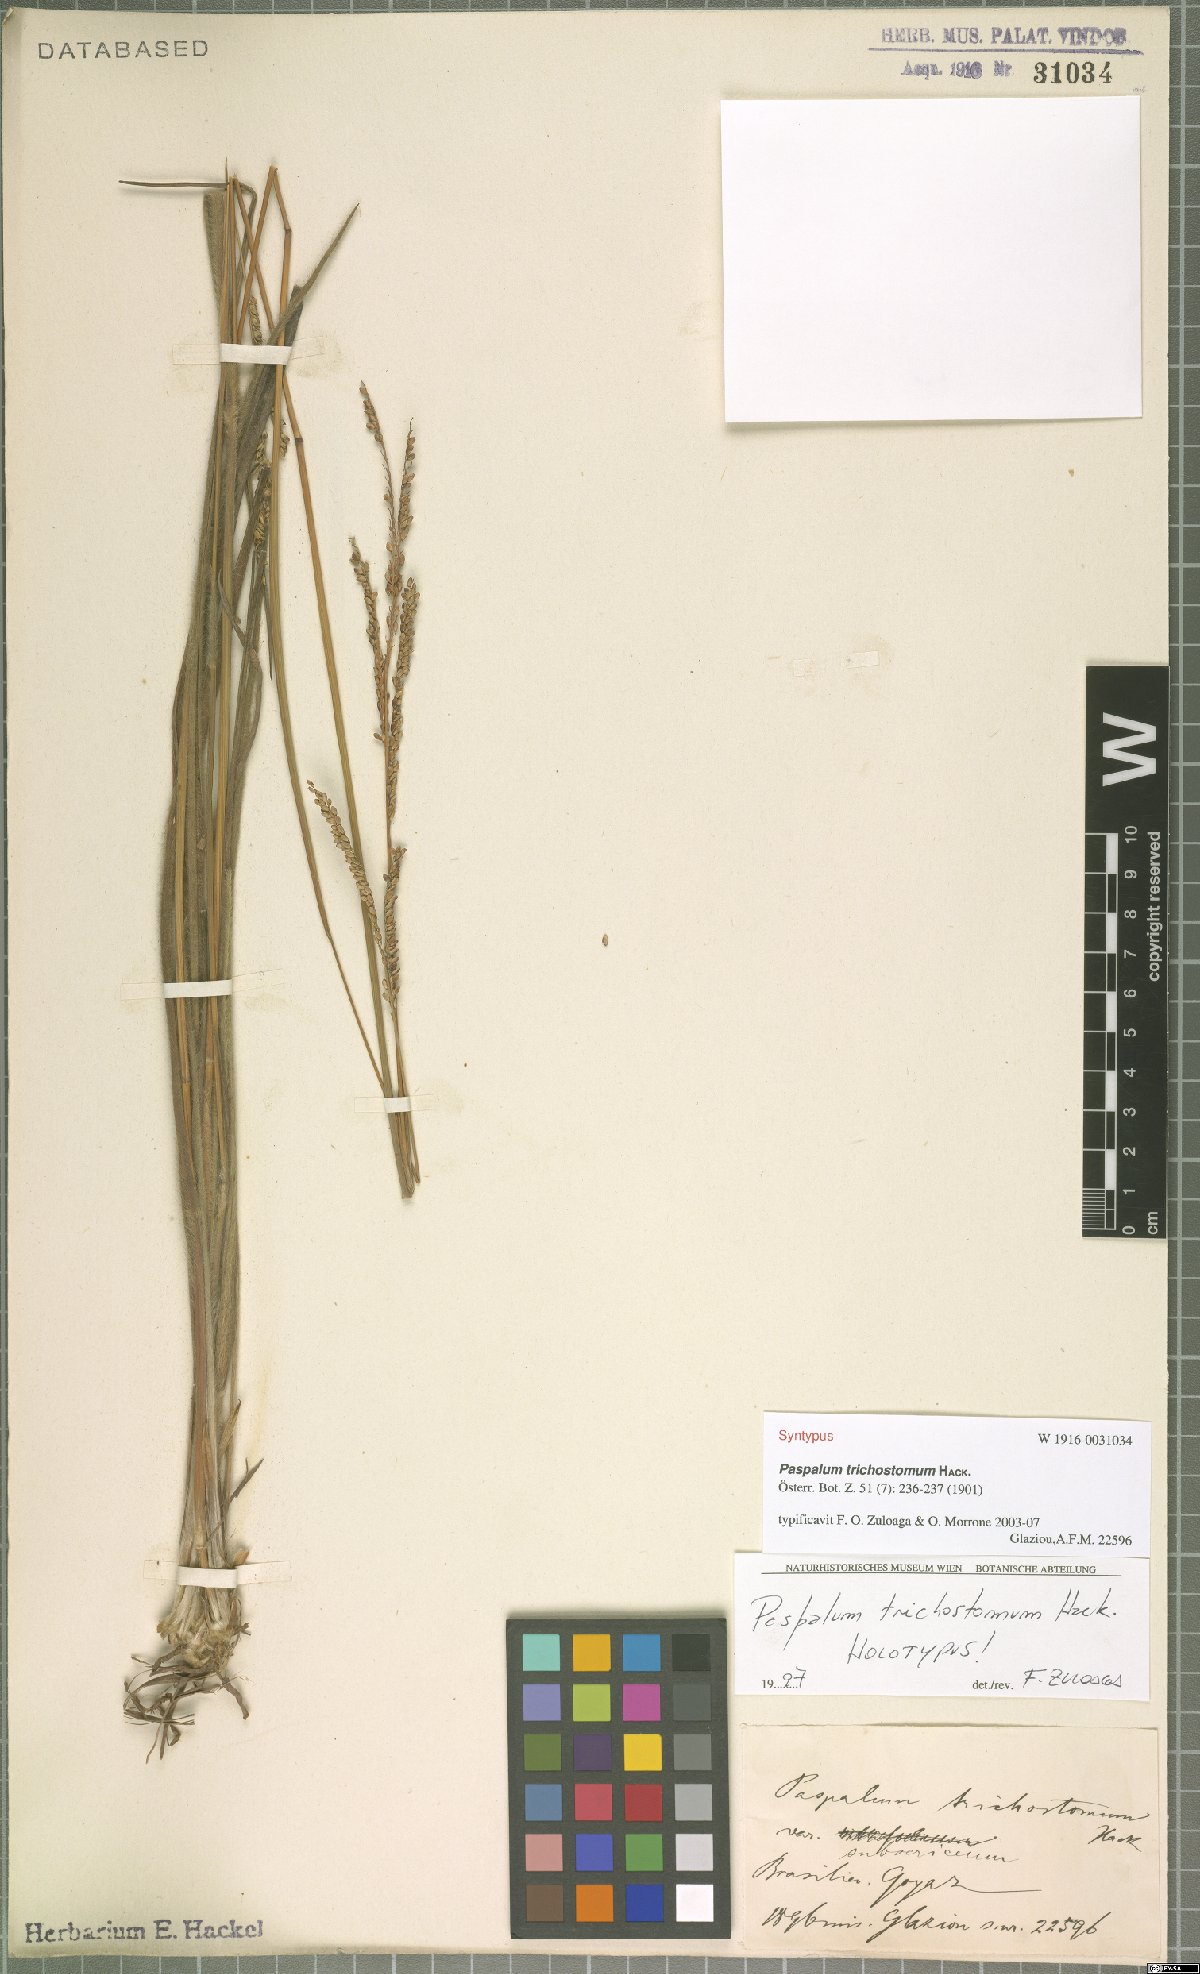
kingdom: Plantae
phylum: Tracheophyta
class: Liliopsida
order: Poales
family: Poaceae
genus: Paspalum
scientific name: Paspalum trichostomum
